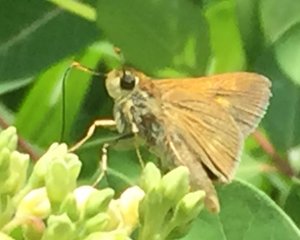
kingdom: Animalia
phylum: Arthropoda
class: Insecta
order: Lepidoptera
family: Hesperiidae
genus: Polites
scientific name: Polites
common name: Crossline Skipper
